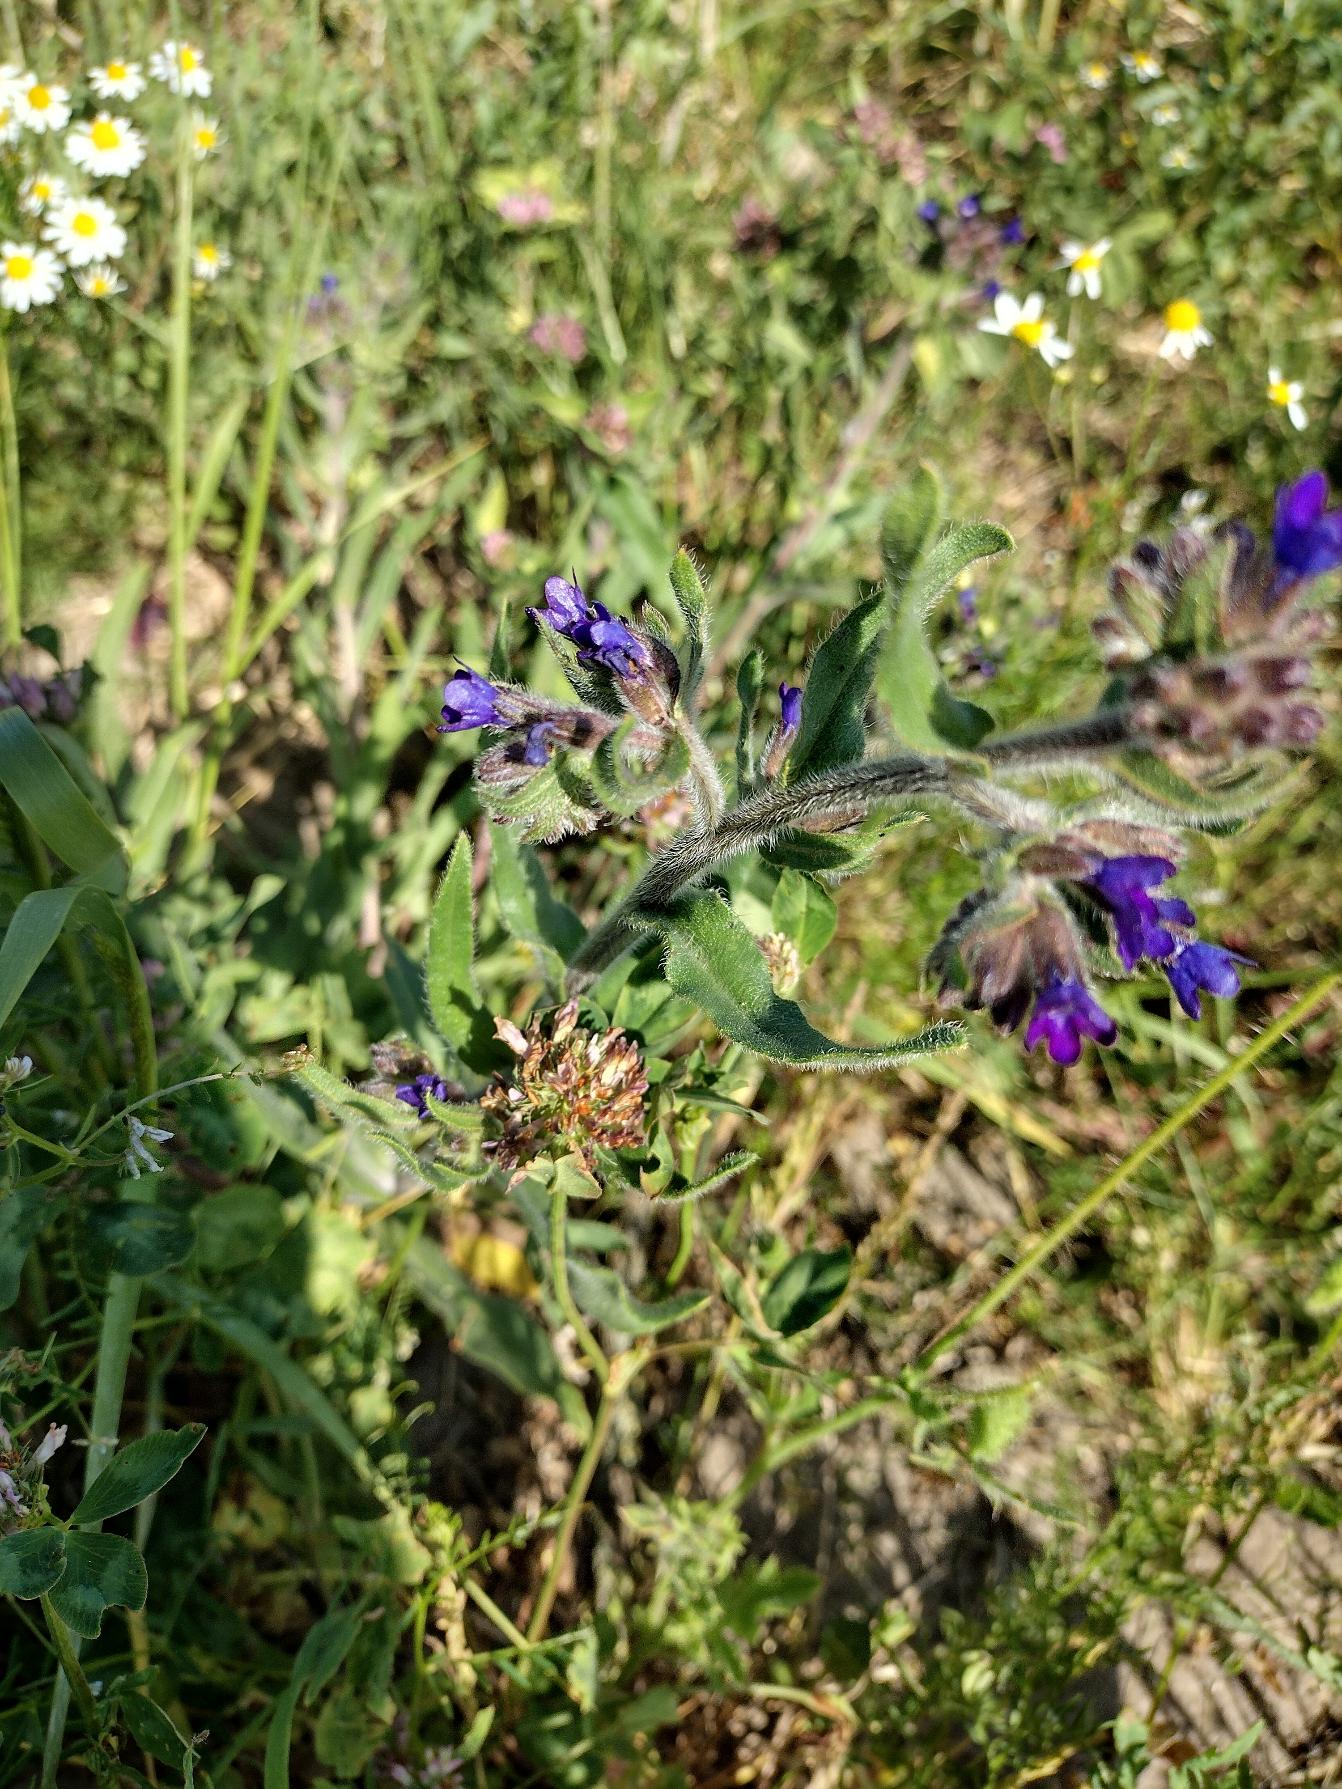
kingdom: Plantae
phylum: Tracheophyta
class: Magnoliopsida
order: Boraginales
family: Boraginaceae
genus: Anchusa
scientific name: Anchusa officinalis
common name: Læge-oksetunge
